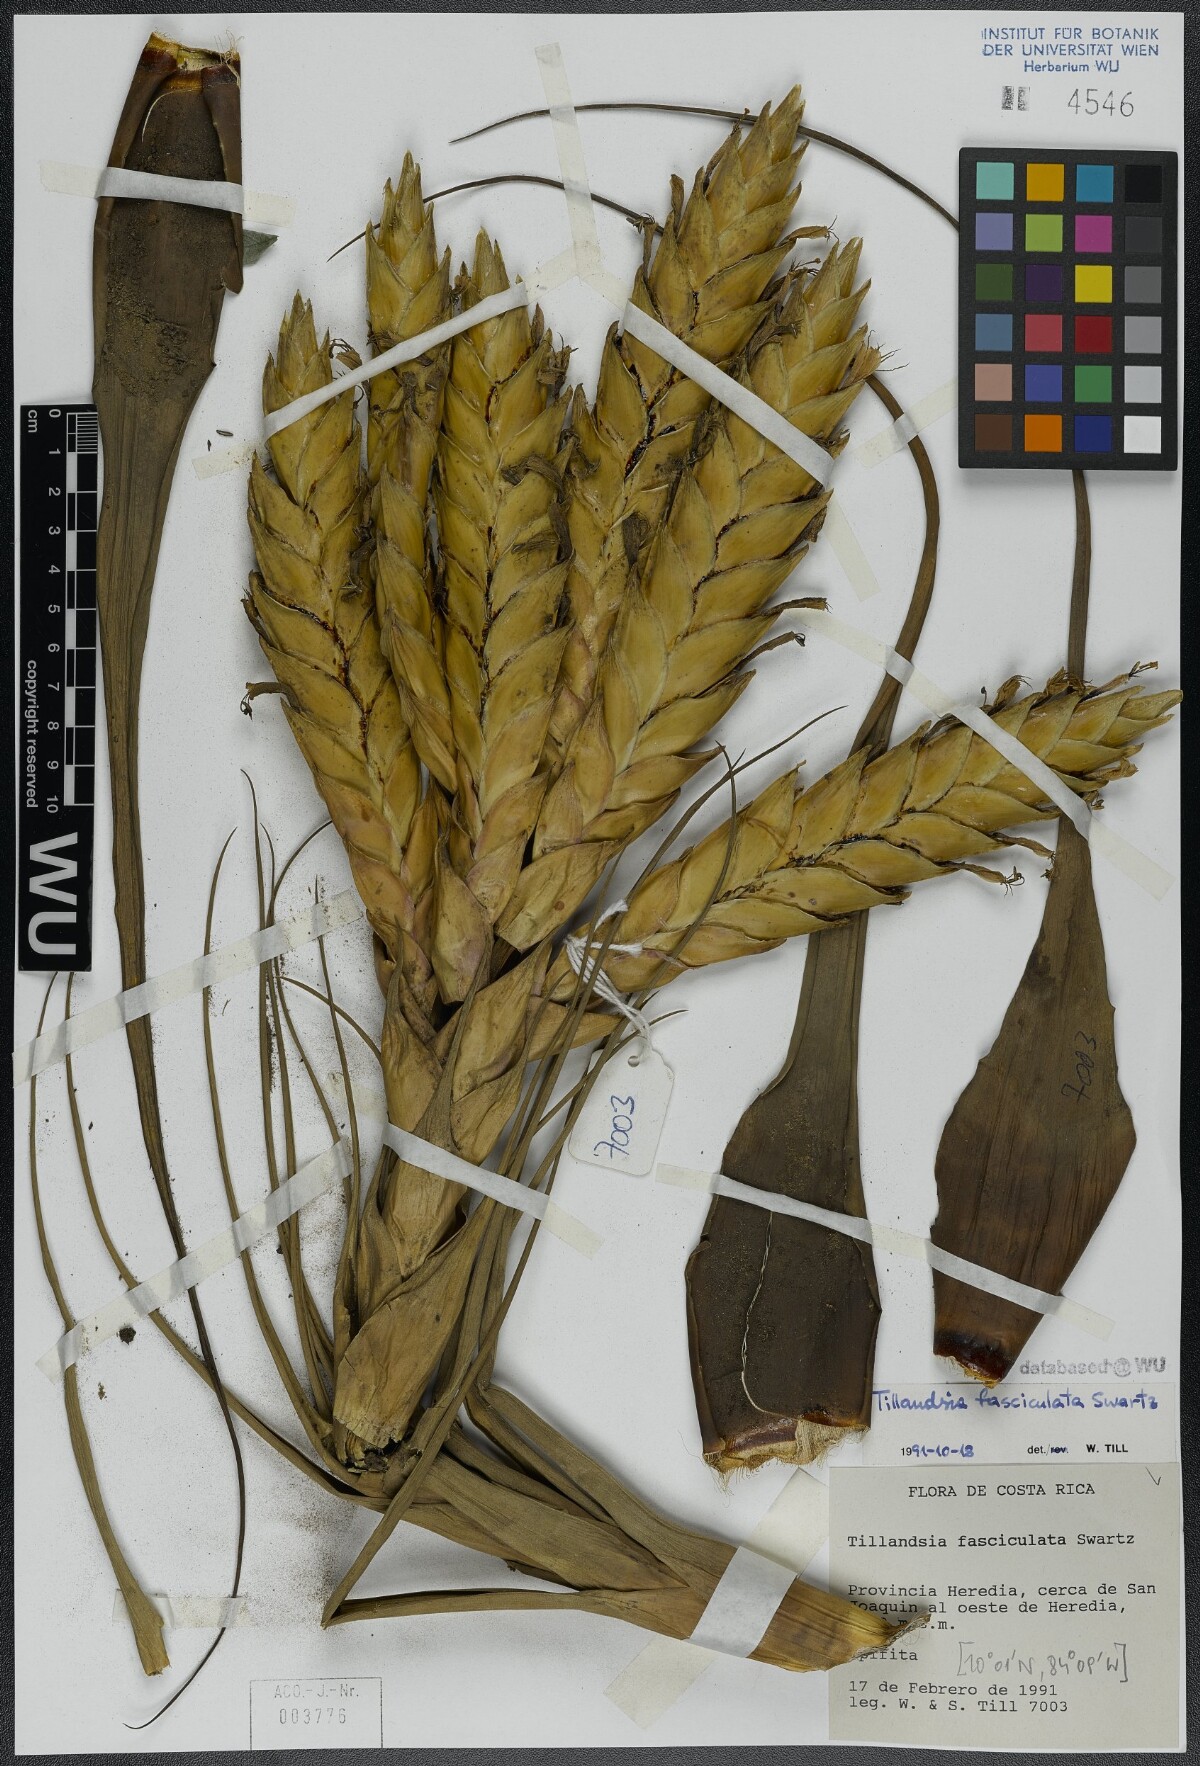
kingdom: Plantae
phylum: Tracheophyta
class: Liliopsida
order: Poales
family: Bromeliaceae
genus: Tillandsia
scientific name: Tillandsia fasciculata
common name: Giant airplant
